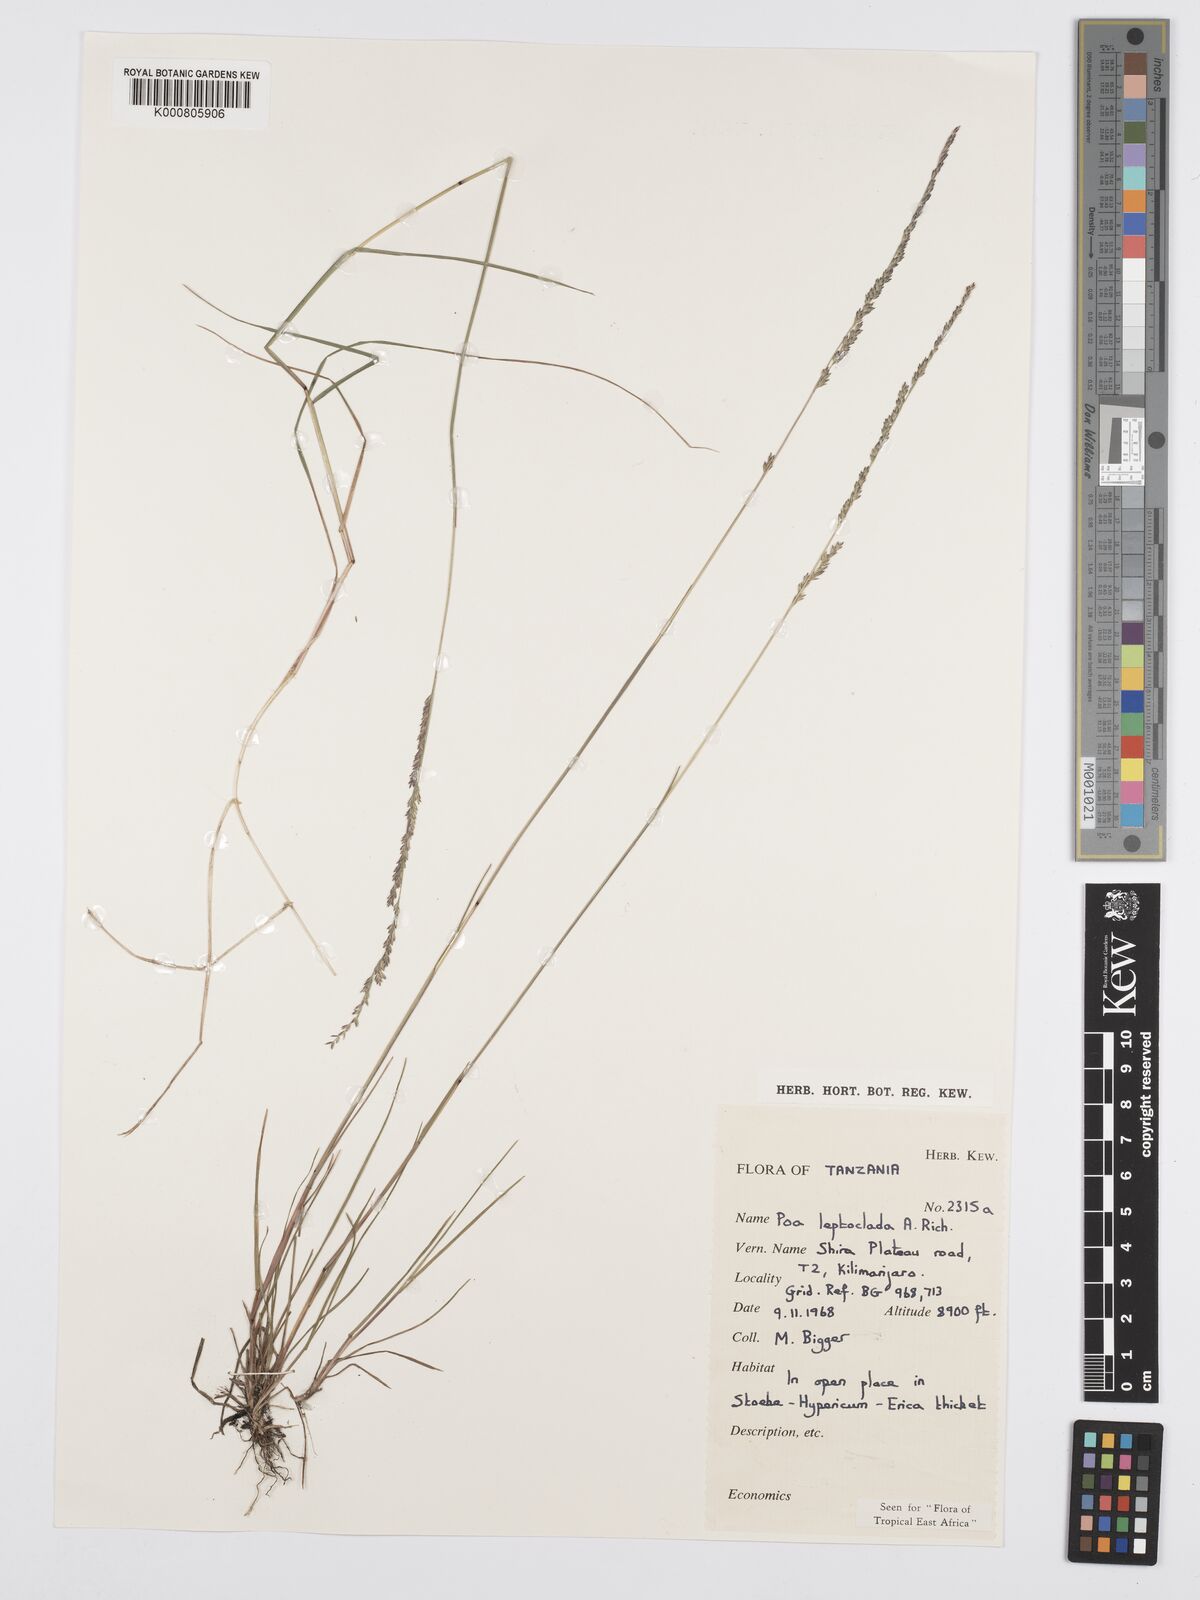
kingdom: Plantae
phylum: Tracheophyta
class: Liliopsida
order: Poales
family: Poaceae
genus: Poa
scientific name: Poa leptoclada
